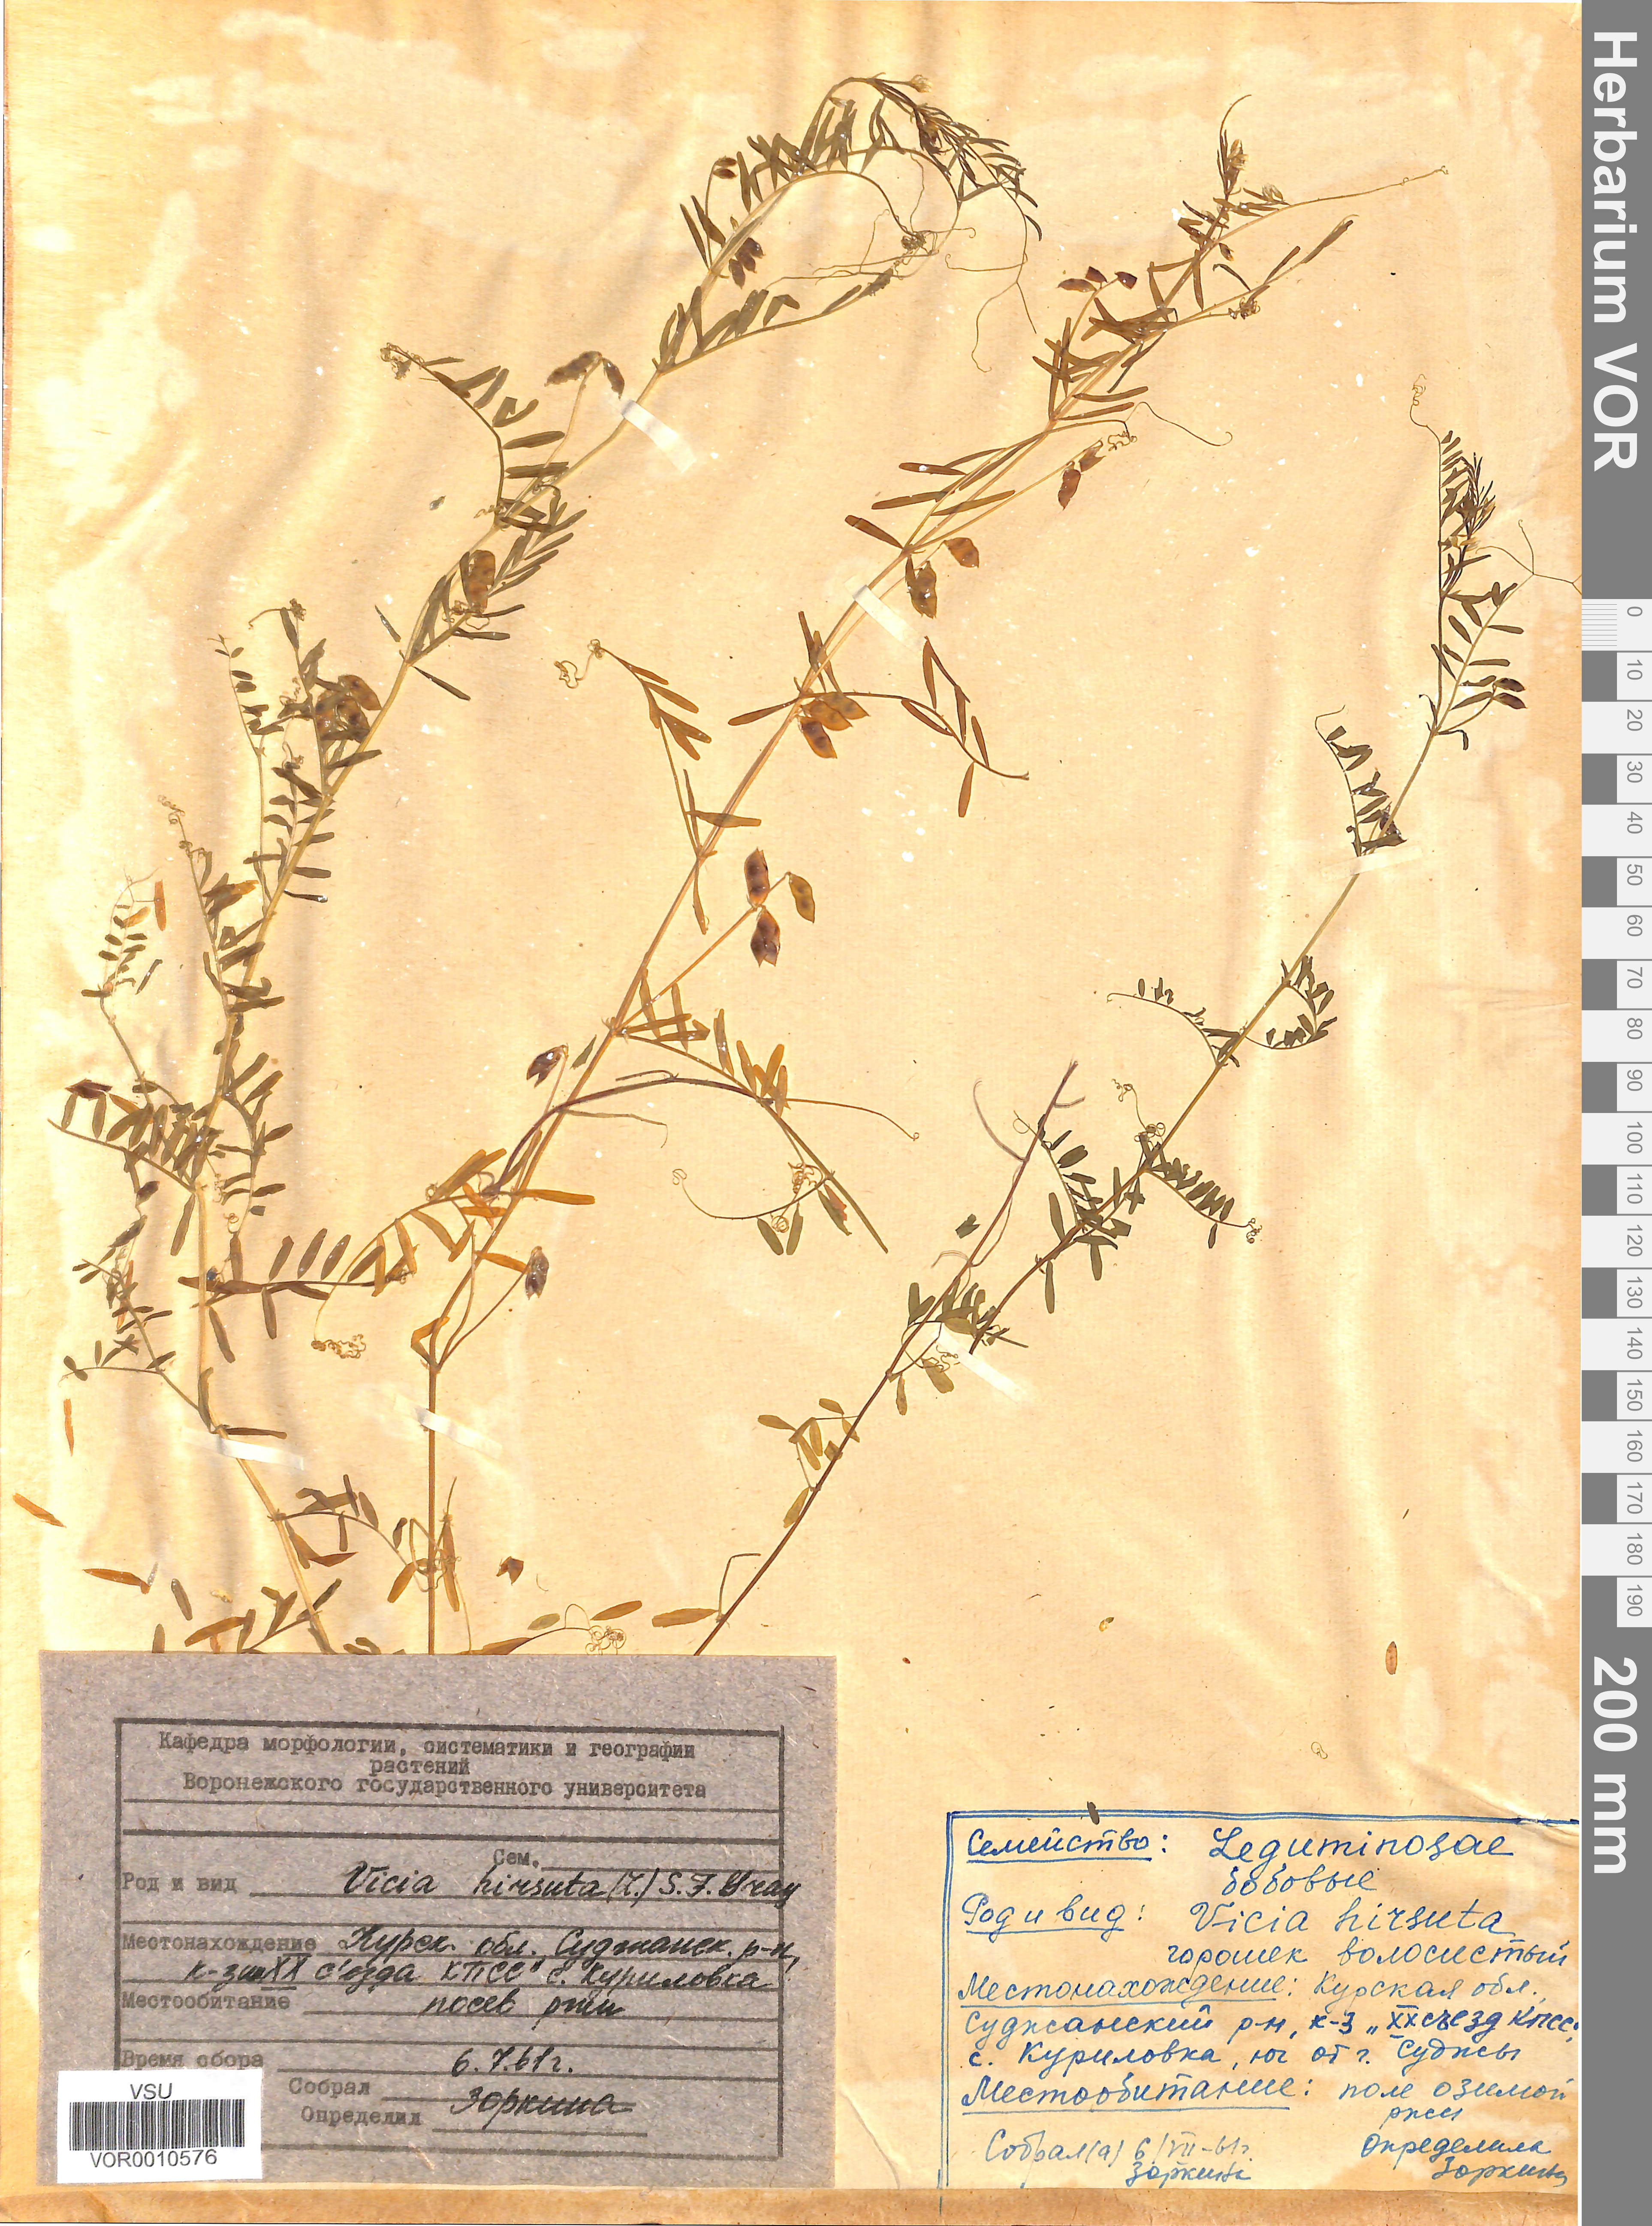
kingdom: Plantae
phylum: Tracheophyta
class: Magnoliopsida
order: Fabales
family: Fabaceae
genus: Vicia
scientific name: Vicia hirsuta
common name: Tiny vetch
